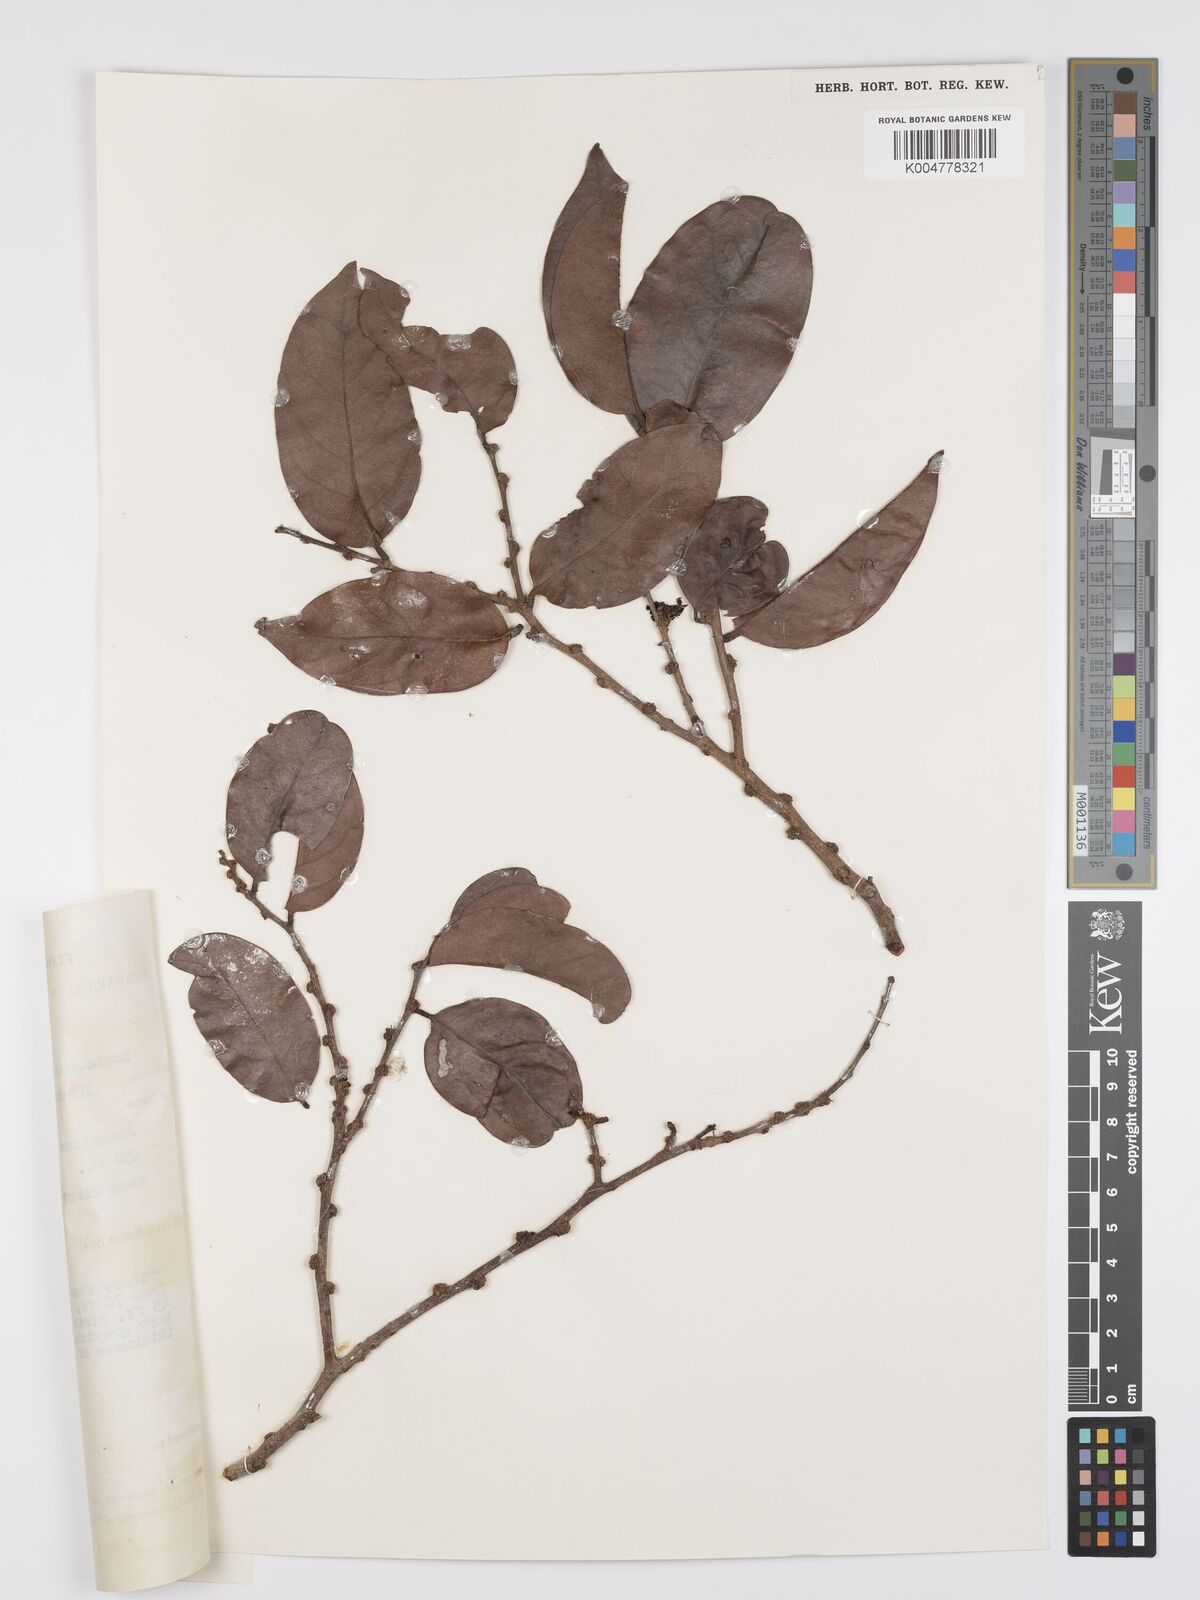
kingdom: Plantae
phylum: Tracheophyta
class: Magnoliopsida
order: Malpighiales
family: Peraceae
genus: Chaetocarpus
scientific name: Chaetocarpus castanocarpus
